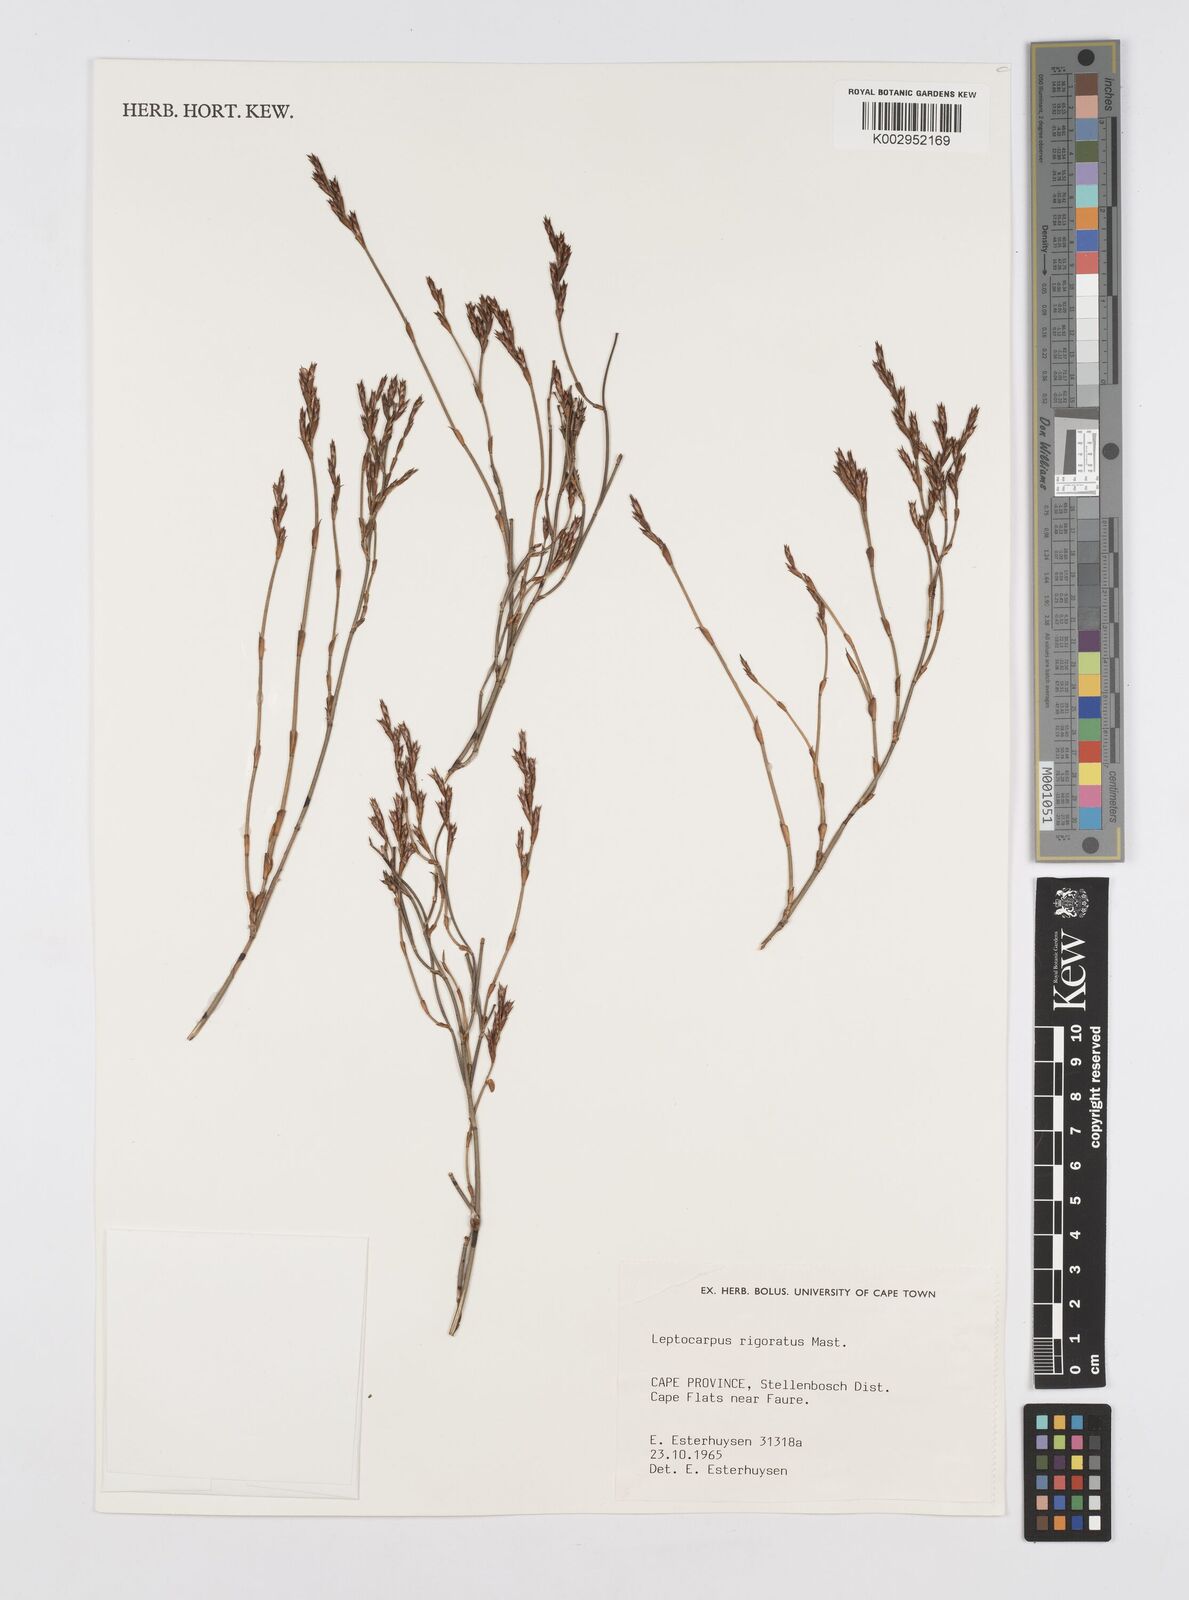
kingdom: Plantae
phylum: Tracheophyta
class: Liliopsida
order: Poales
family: Restionaceae
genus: Restio
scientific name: Restio rigoratus
